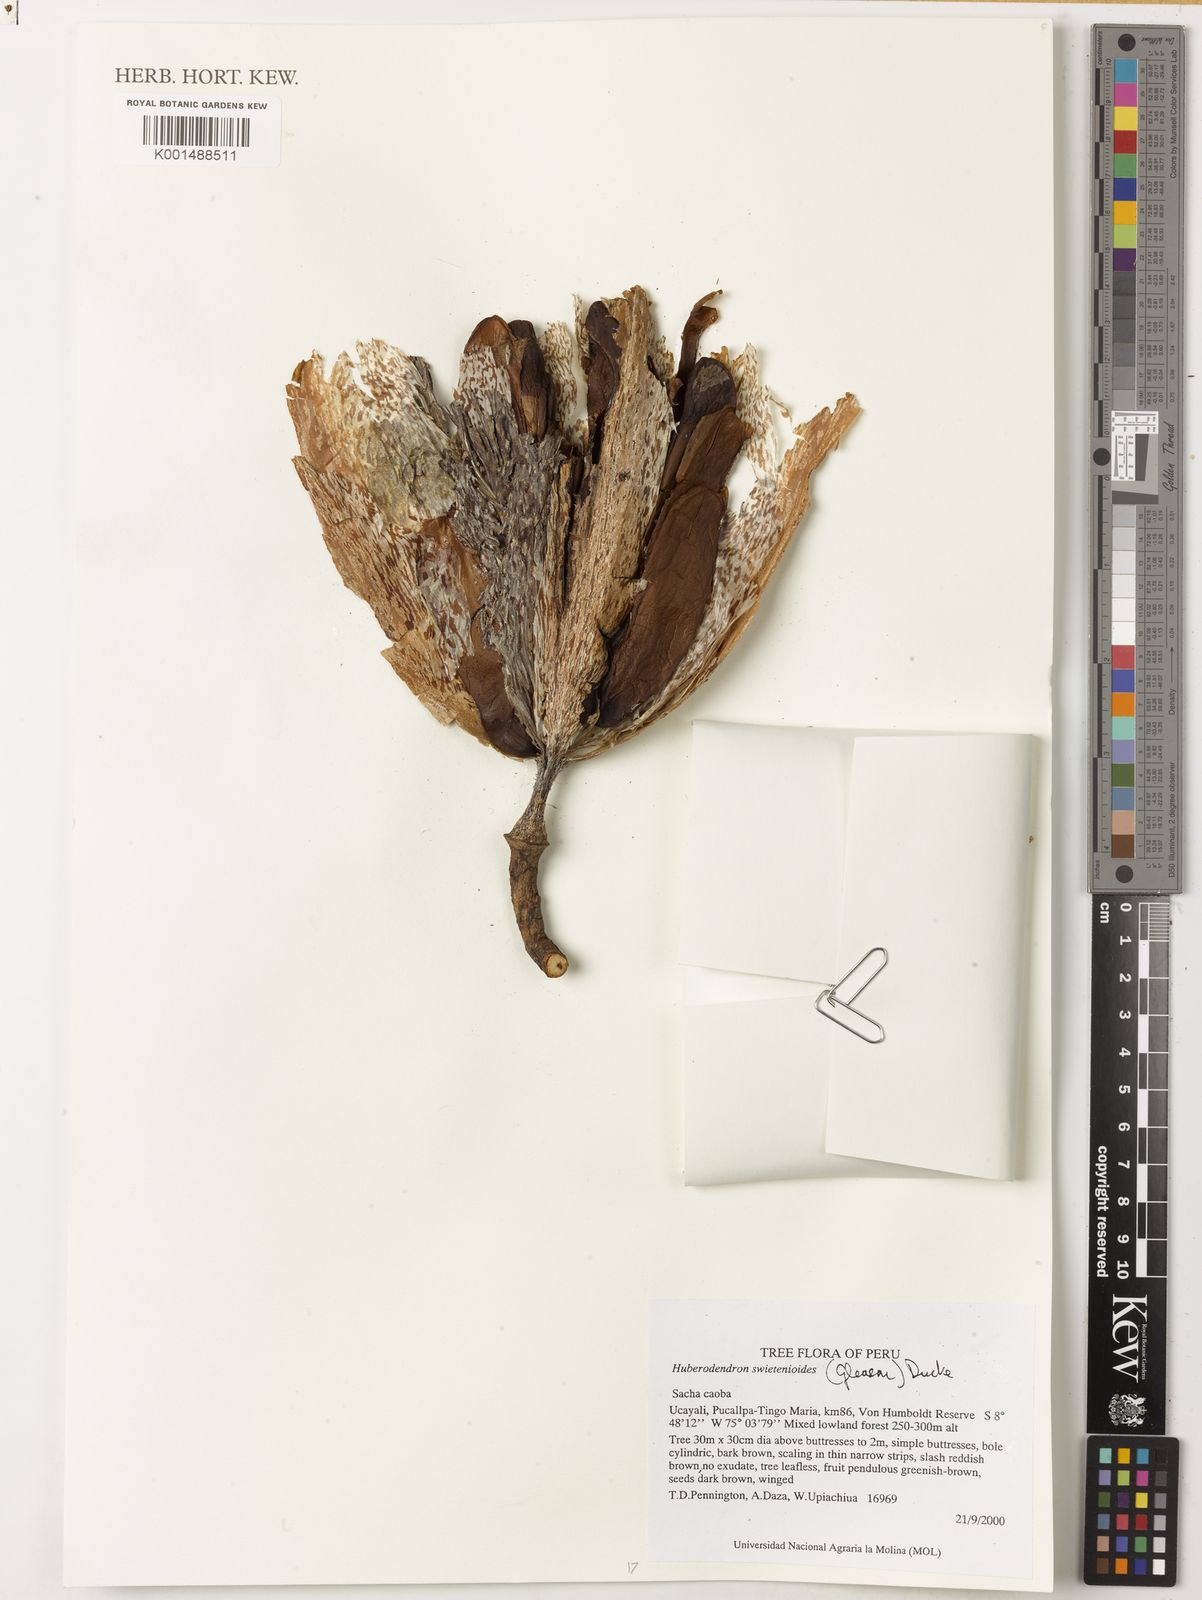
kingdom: Plantae
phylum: Tracheophyta
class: Magnoliopsida
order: Malvales
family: Malvaceae
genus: Huberodendron
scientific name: Huberodendron swietenioides
